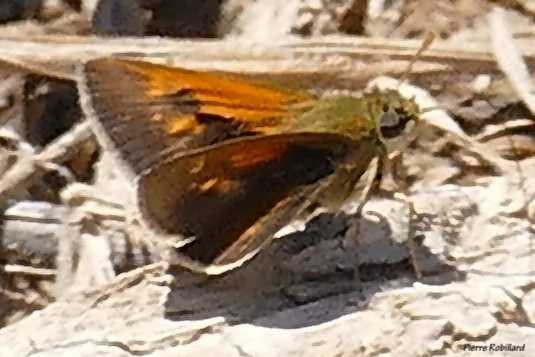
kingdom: Animalia
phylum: Arthropoda
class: Insecta
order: Lepidoptera
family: Hesperiidae
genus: Polites
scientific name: Polites
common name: Long Dash Skipper
